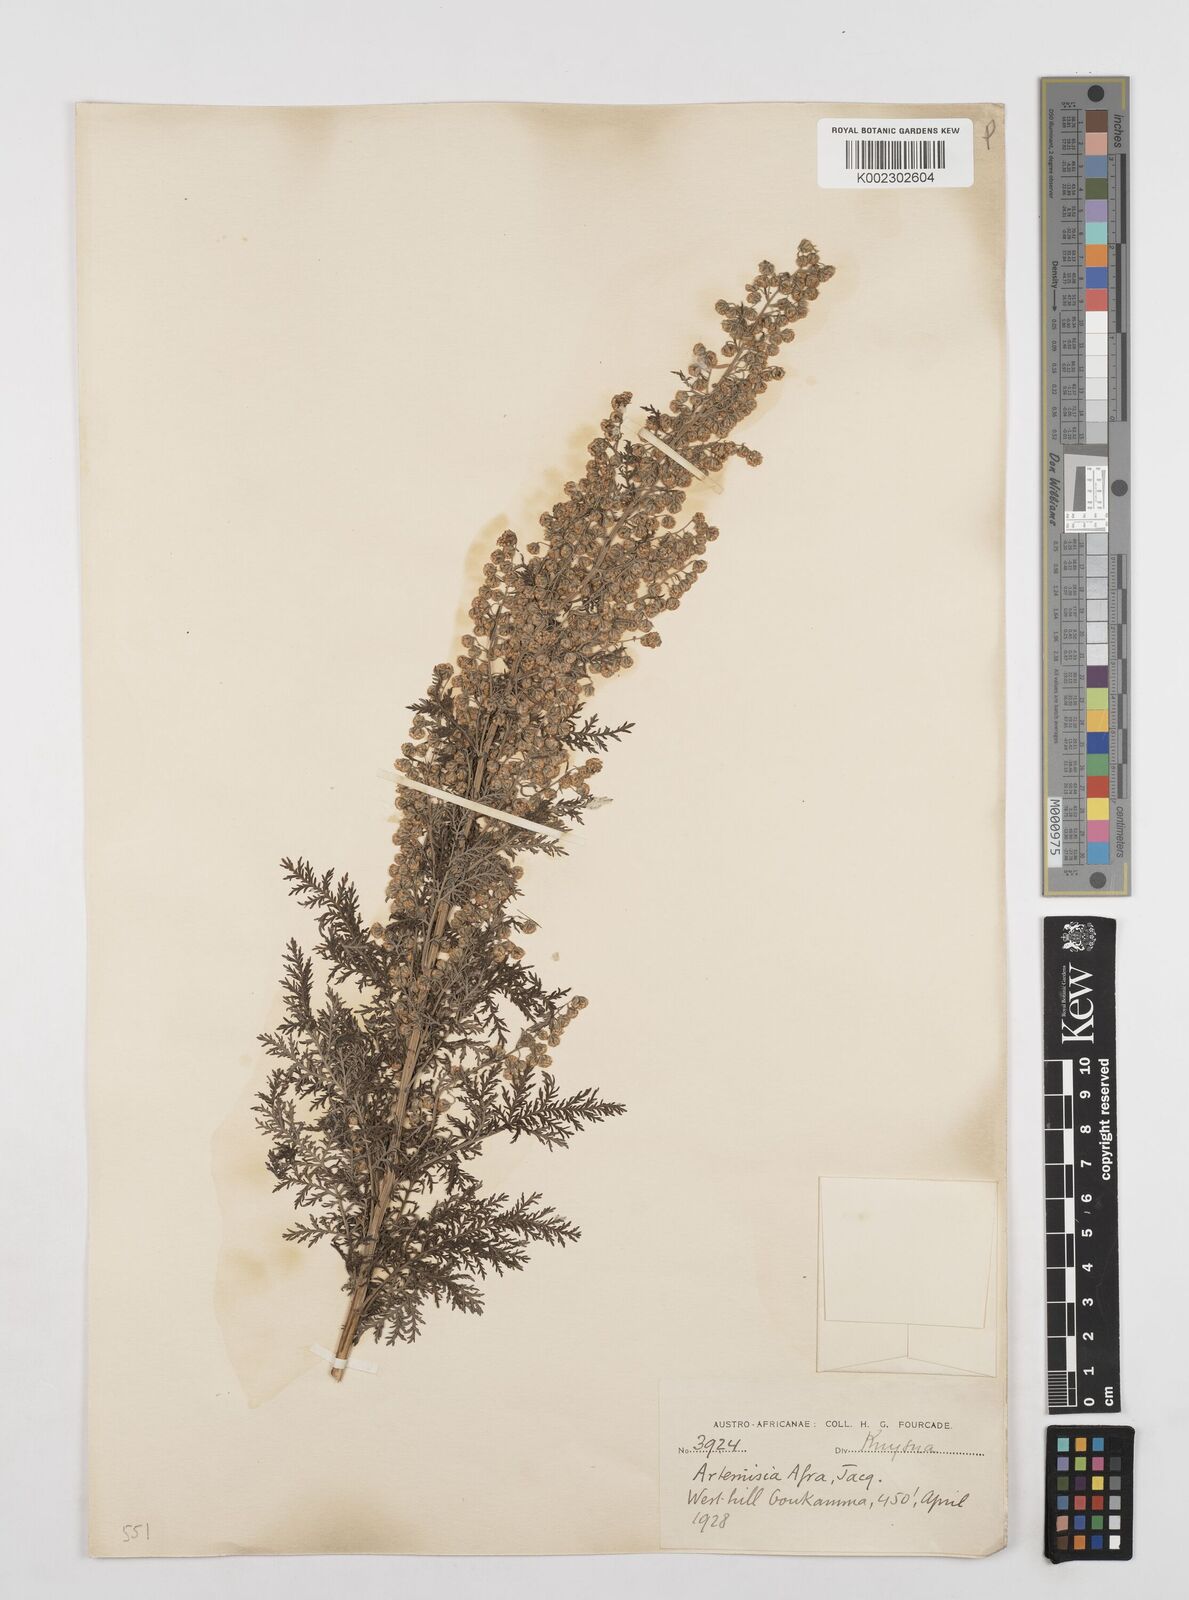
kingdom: Plantae
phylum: Tracheophyta
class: Magnoliopsida
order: Asterales
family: Asteraceae
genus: Artemisia
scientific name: Artemisia afra
